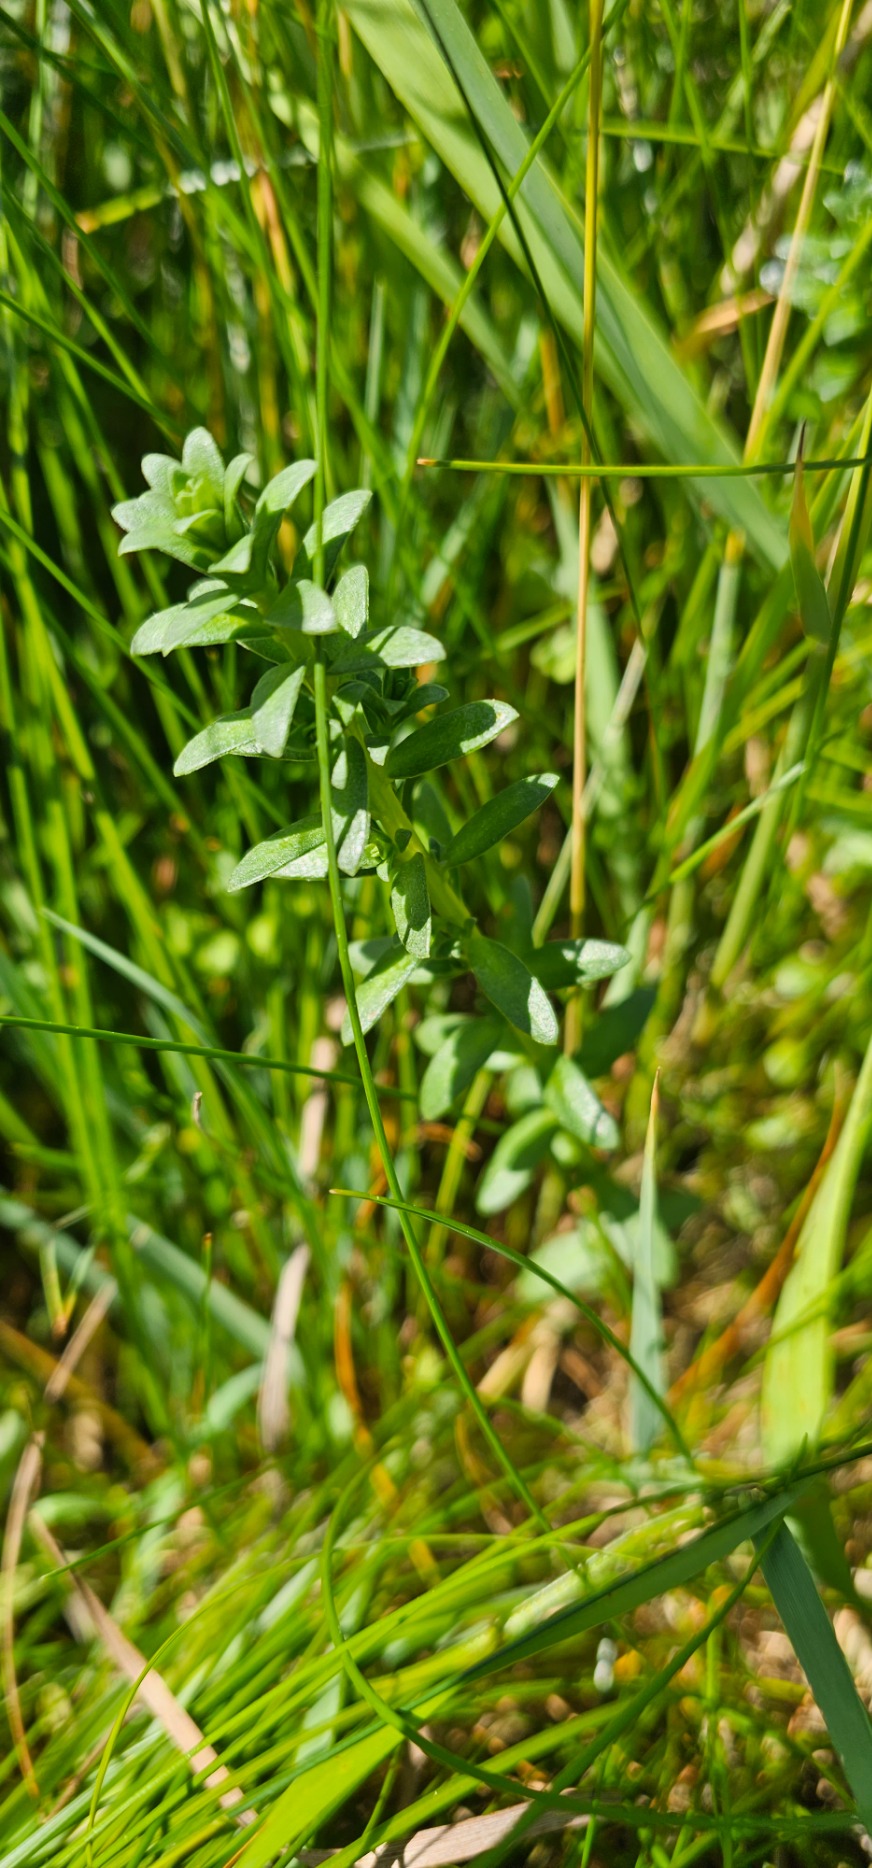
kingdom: Plantae
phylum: Tracheophyta
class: Magnoliopsida
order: Ericales
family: Primulaceae
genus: Lysimachia
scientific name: Lysimachia maritima
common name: Sandkryb
